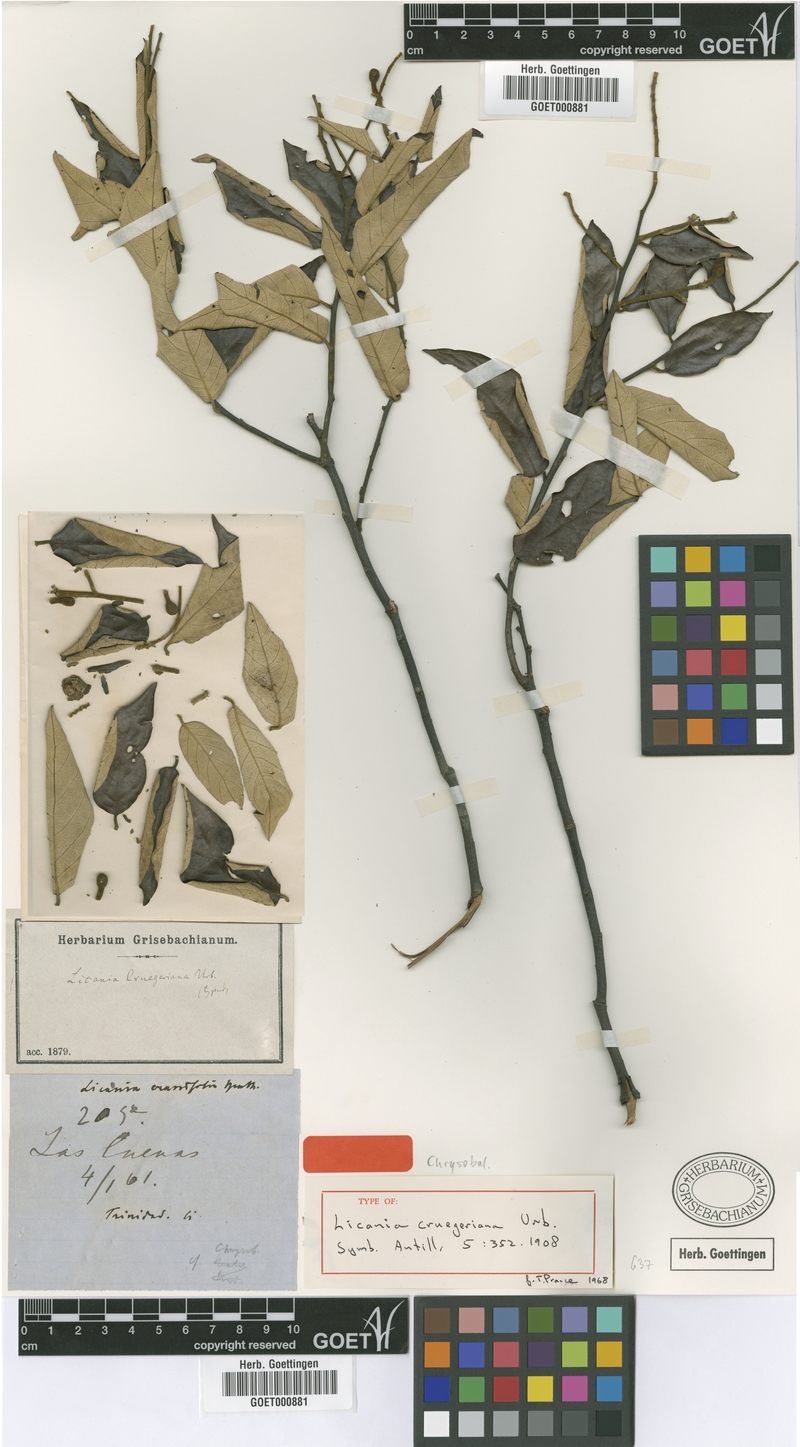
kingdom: Plantae
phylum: Tracheophyta
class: Magnoliopsida
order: Malpighiales
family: Chrysobalanaceae
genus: Licania
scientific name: Licania cruegeriana
